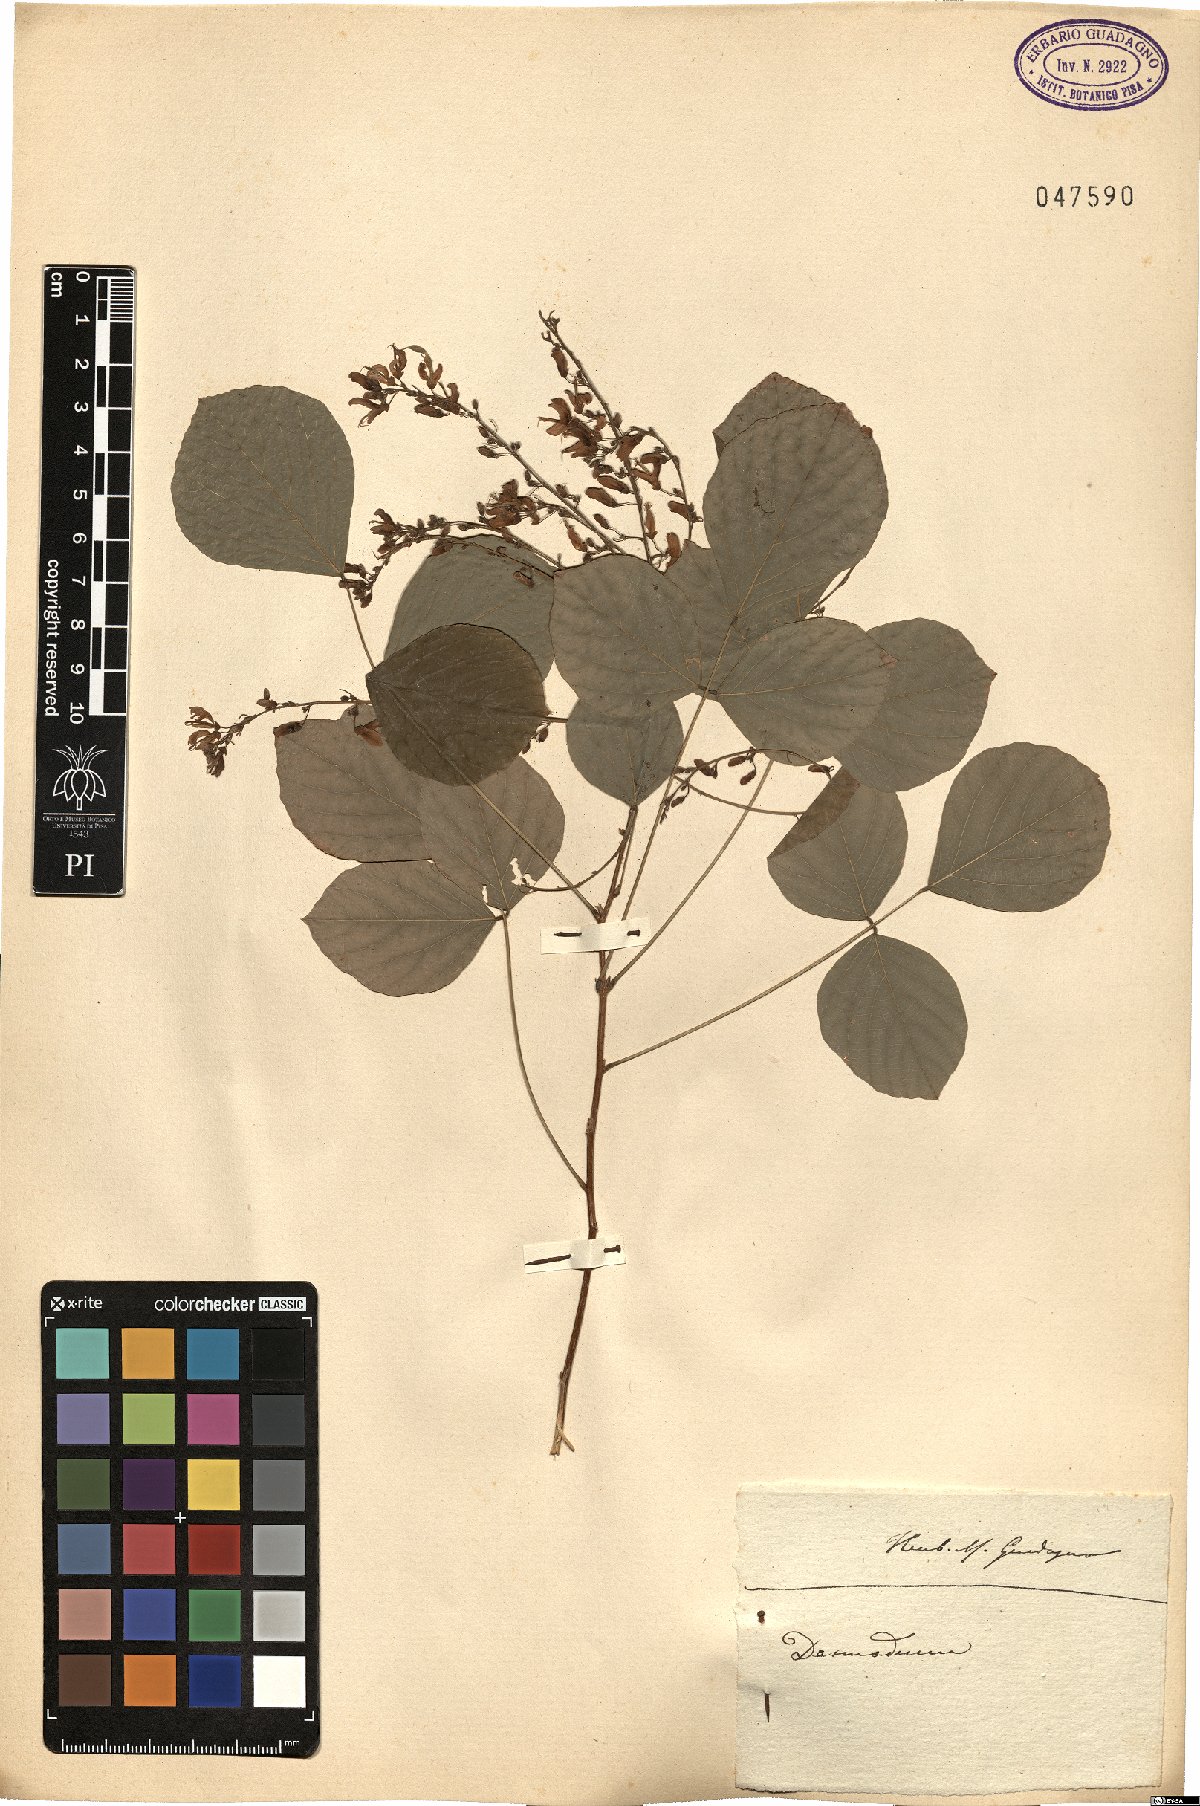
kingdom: Plantae
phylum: Tracheophyta
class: Magnoliopsida
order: Fabales
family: Fabaceae
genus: Desmodium
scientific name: Desmodium
